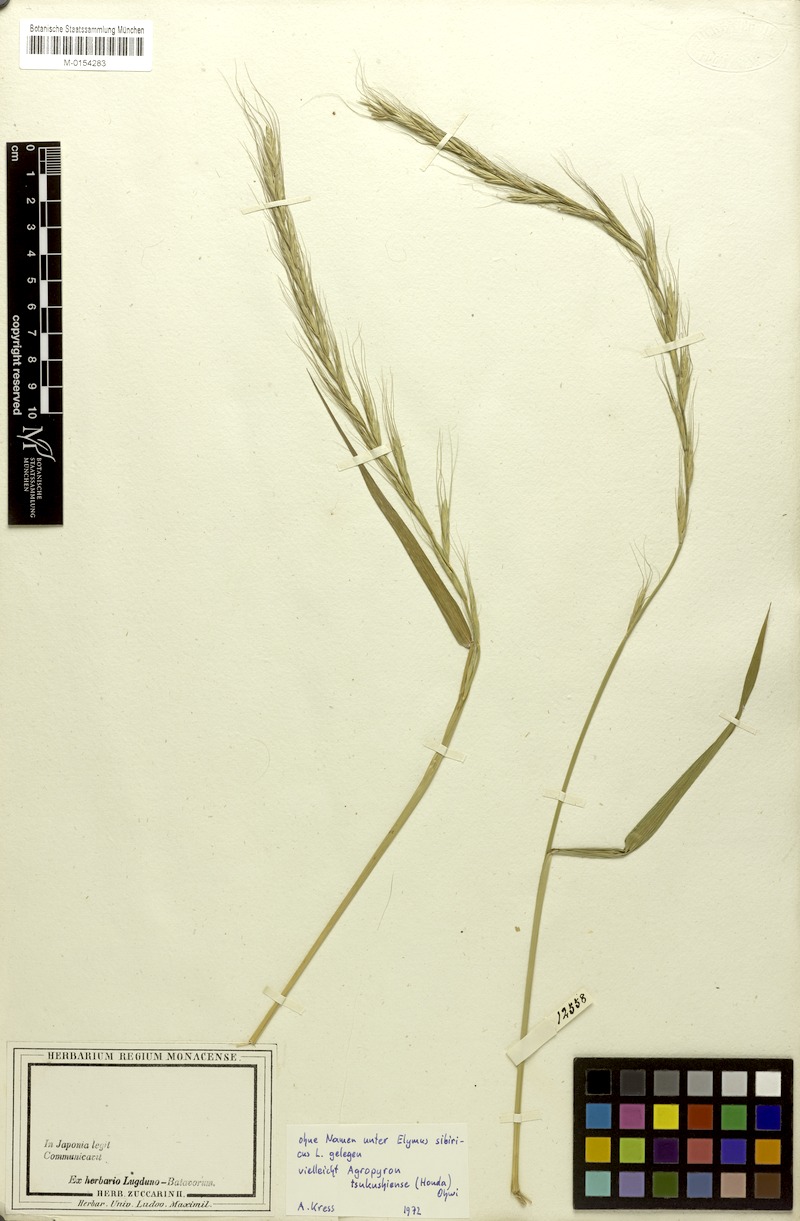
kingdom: Plantae
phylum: Tracheophyta
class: Liliopsida
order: Poales
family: Poaceae
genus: Elymus
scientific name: Elymus tsukushiensis
